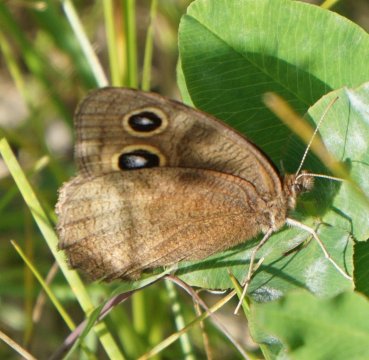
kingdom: Animalia
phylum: Arthropoda
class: Insecta
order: Lepidoptera
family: Nymphalidae
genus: Cercyonis
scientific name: Cercyonis pegala
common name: Common Wood-Nymph
